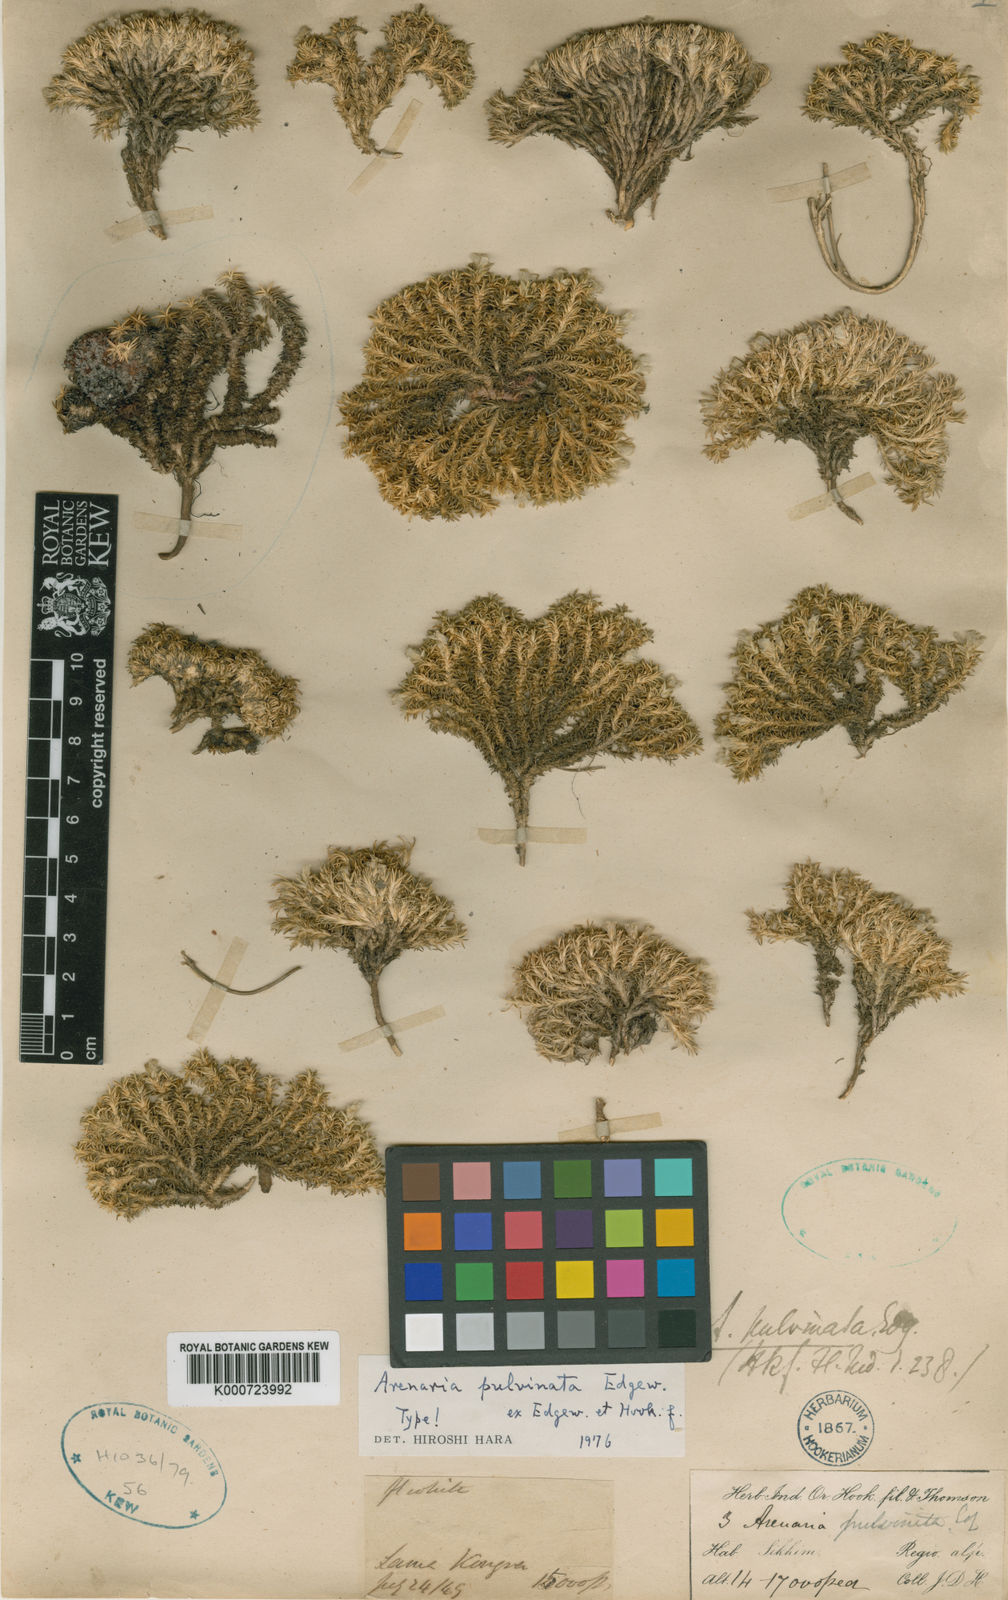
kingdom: Plantae
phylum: Tracheophyta
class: Magnoliopsida
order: Caryophyllales
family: Caryophyllaceae
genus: Eremogone
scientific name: Eremogone pulvinata
